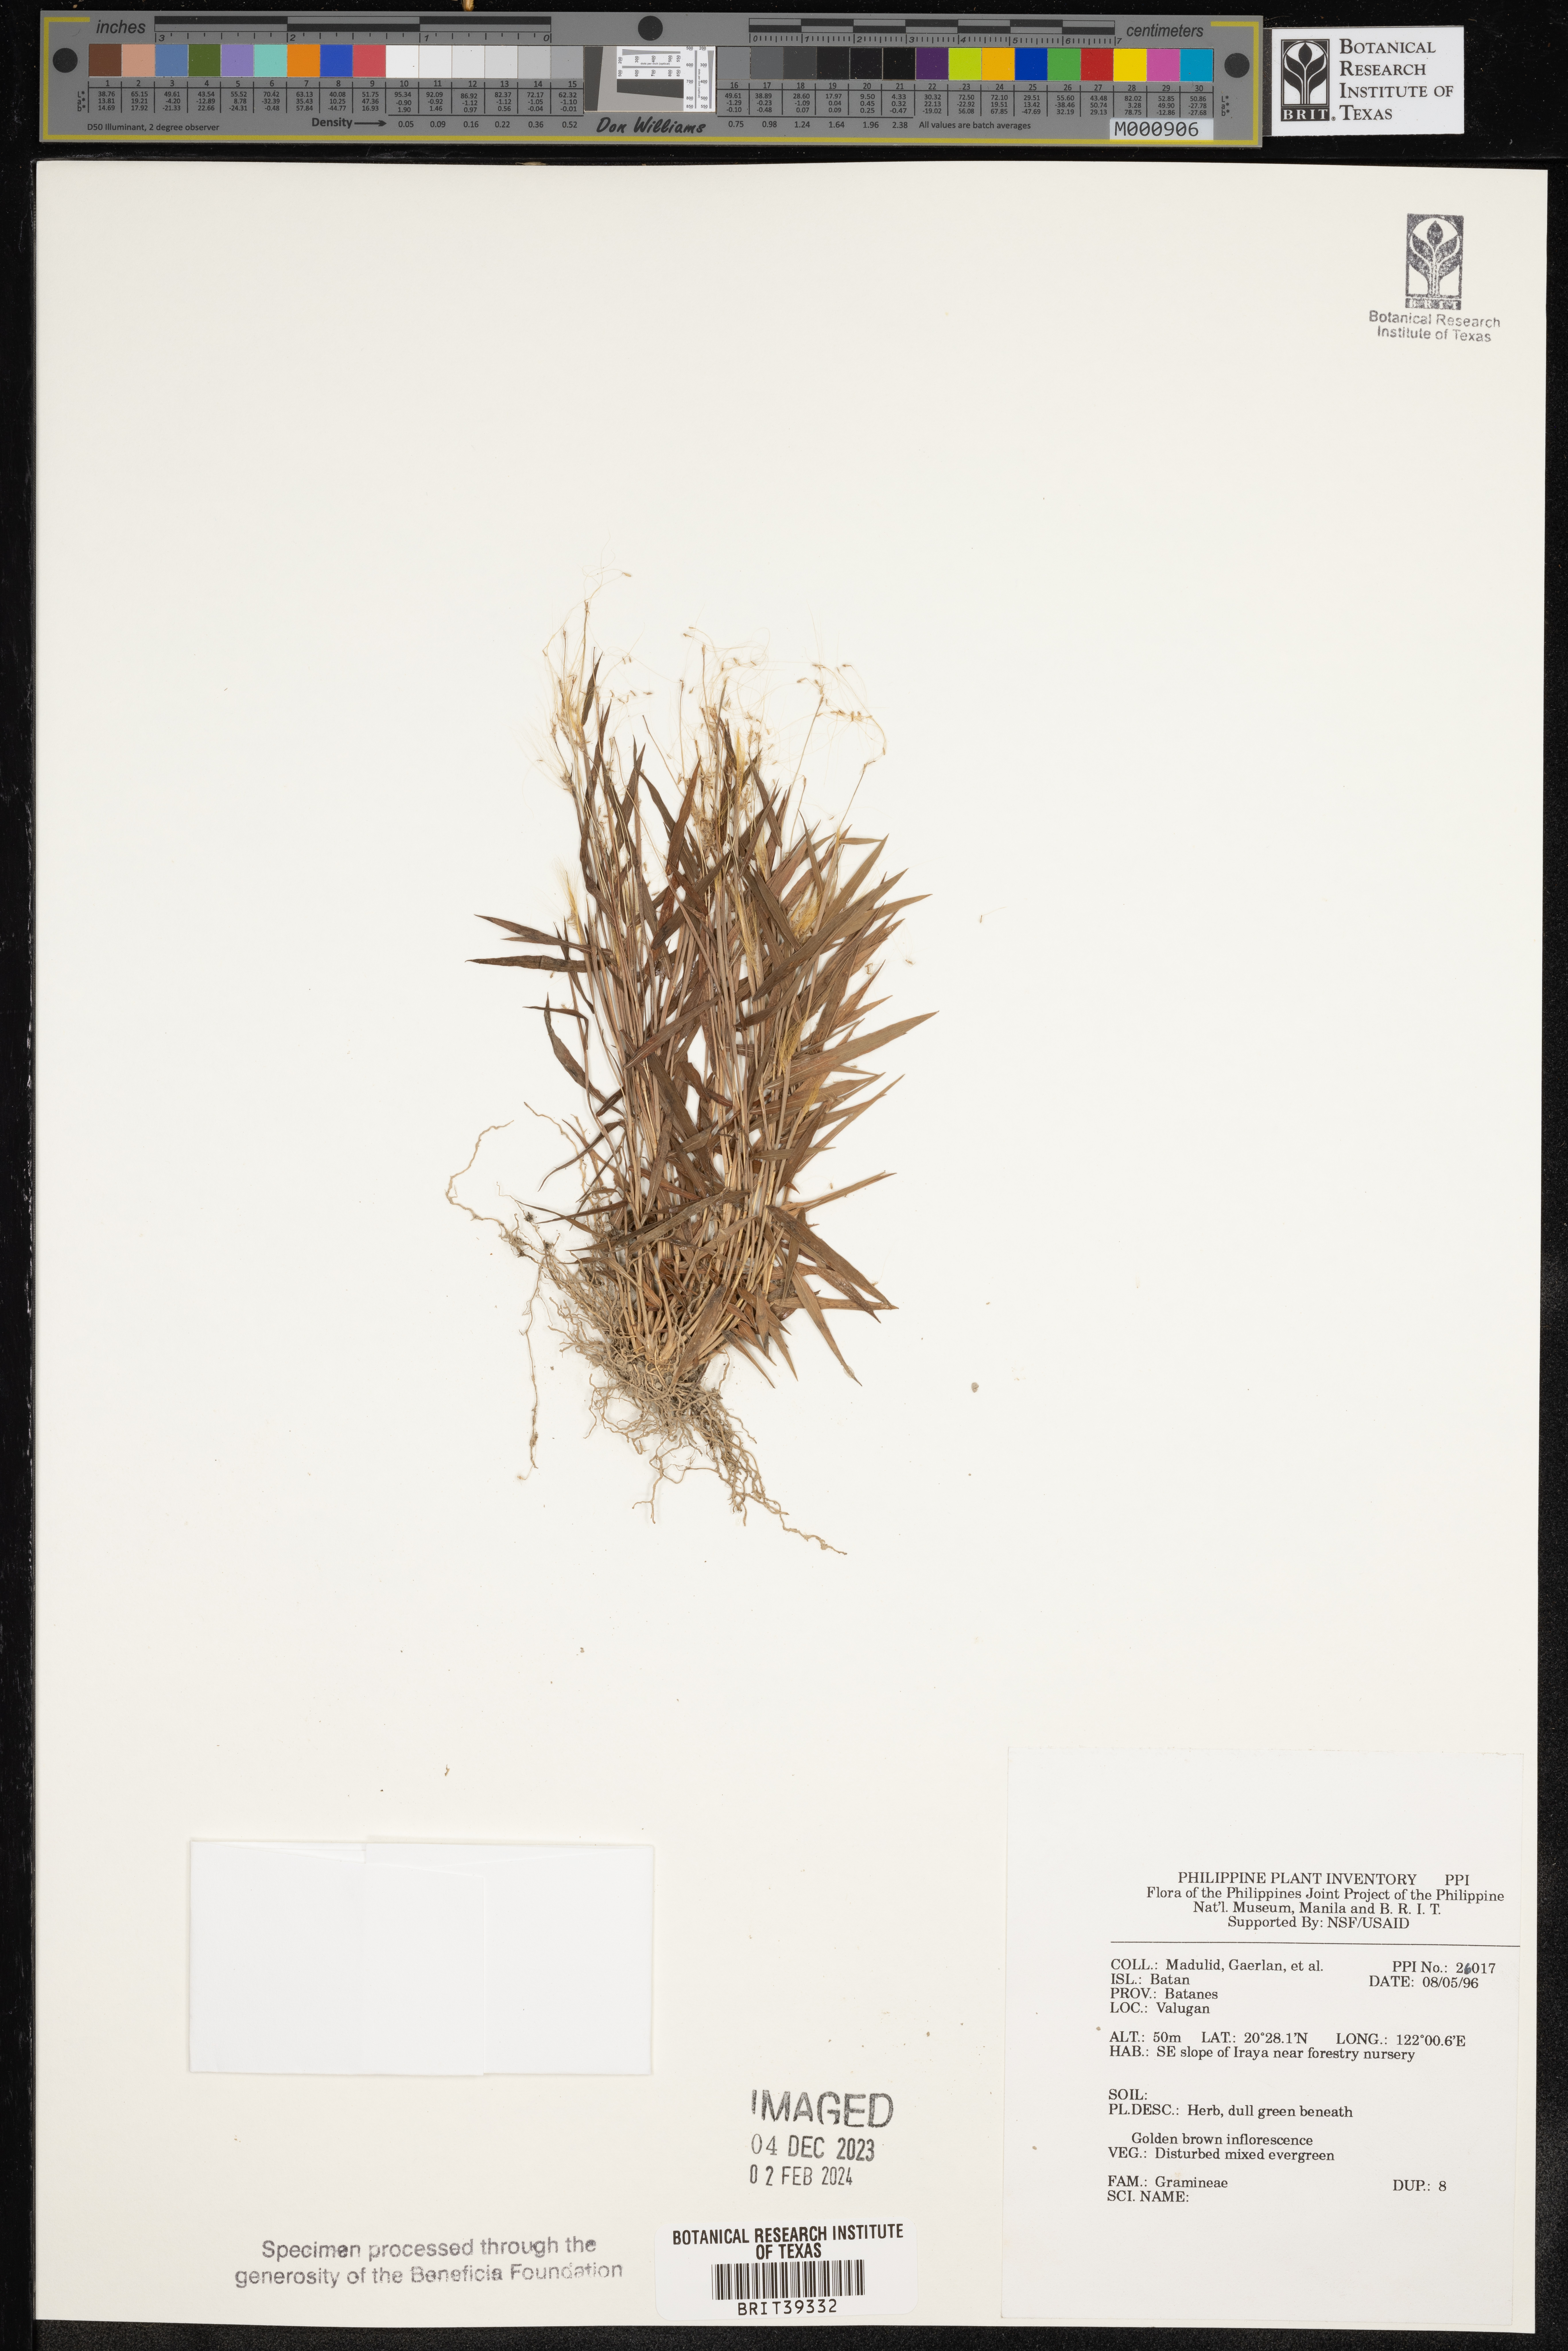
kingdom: Plantae
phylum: Tracheophyta
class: Liliopsida
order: Poales
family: Poaceae
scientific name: Poaceae
